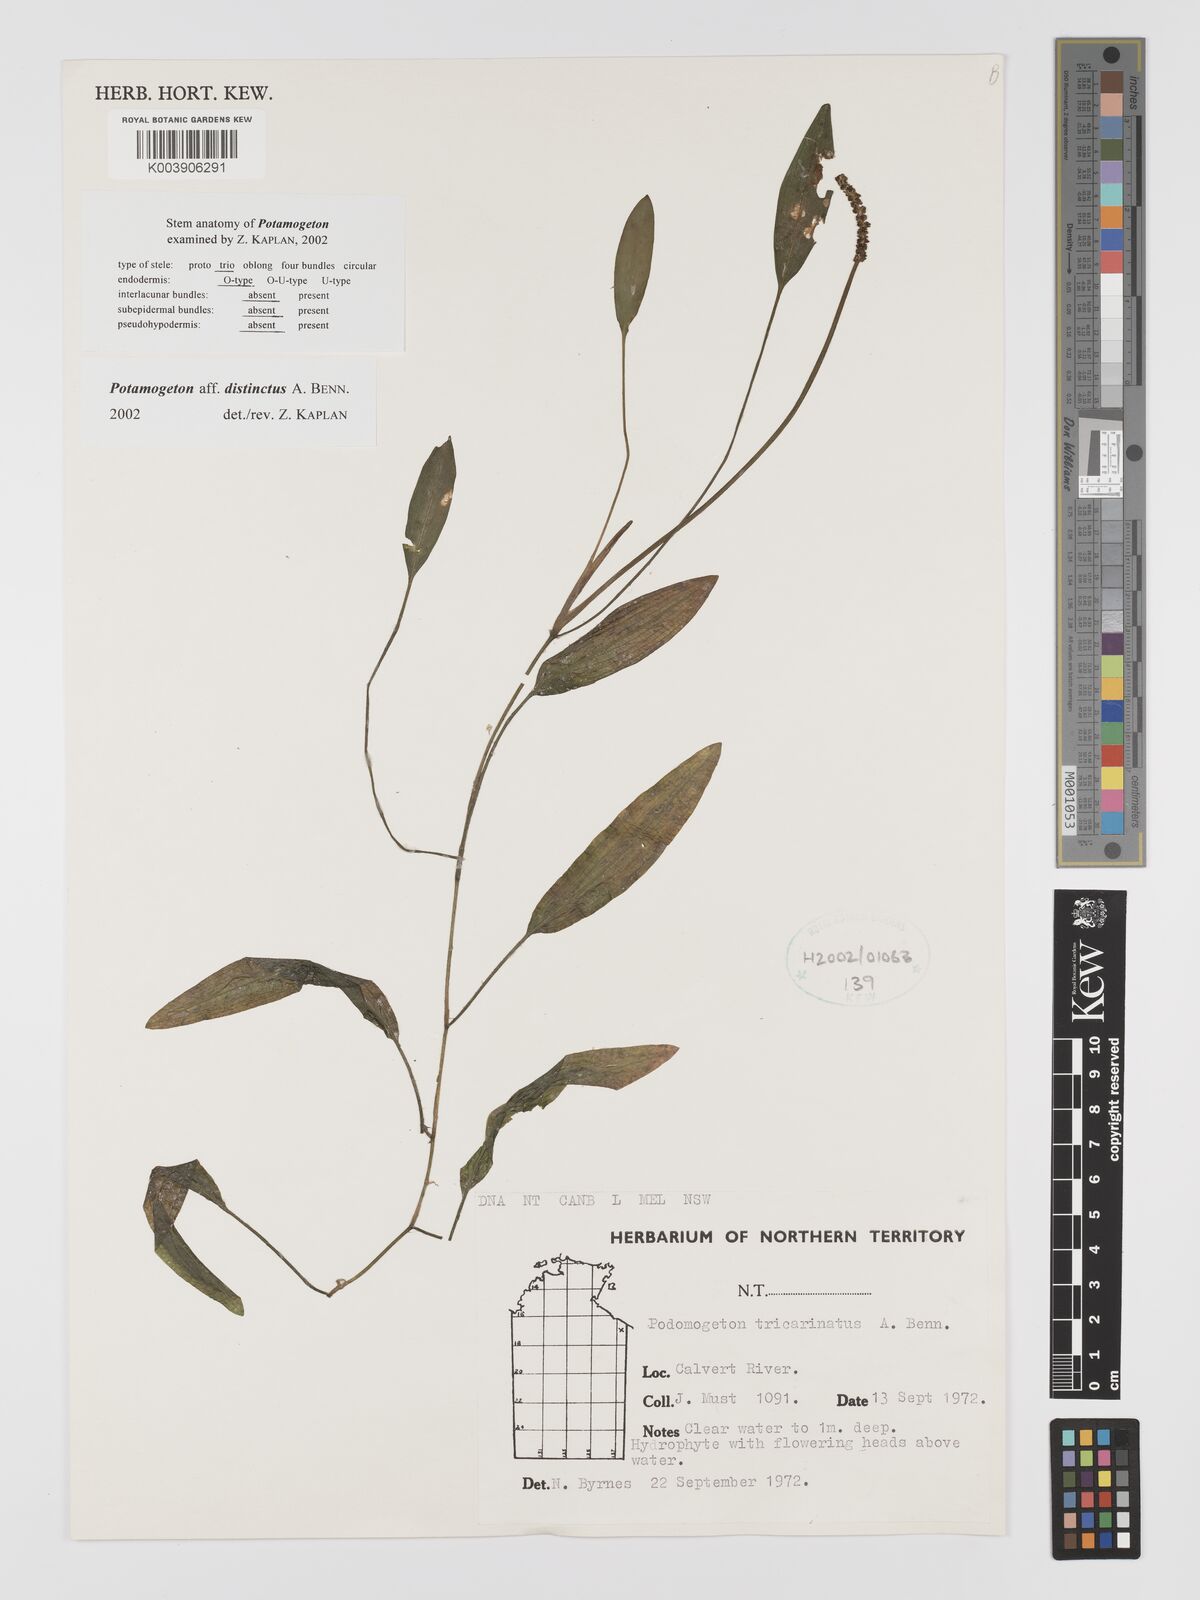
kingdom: Plantae
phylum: Tracheophyta
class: Liliopsida
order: Alismatales
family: Potamogetonaceae
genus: Potamogeton
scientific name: Potamogeton distinctus
